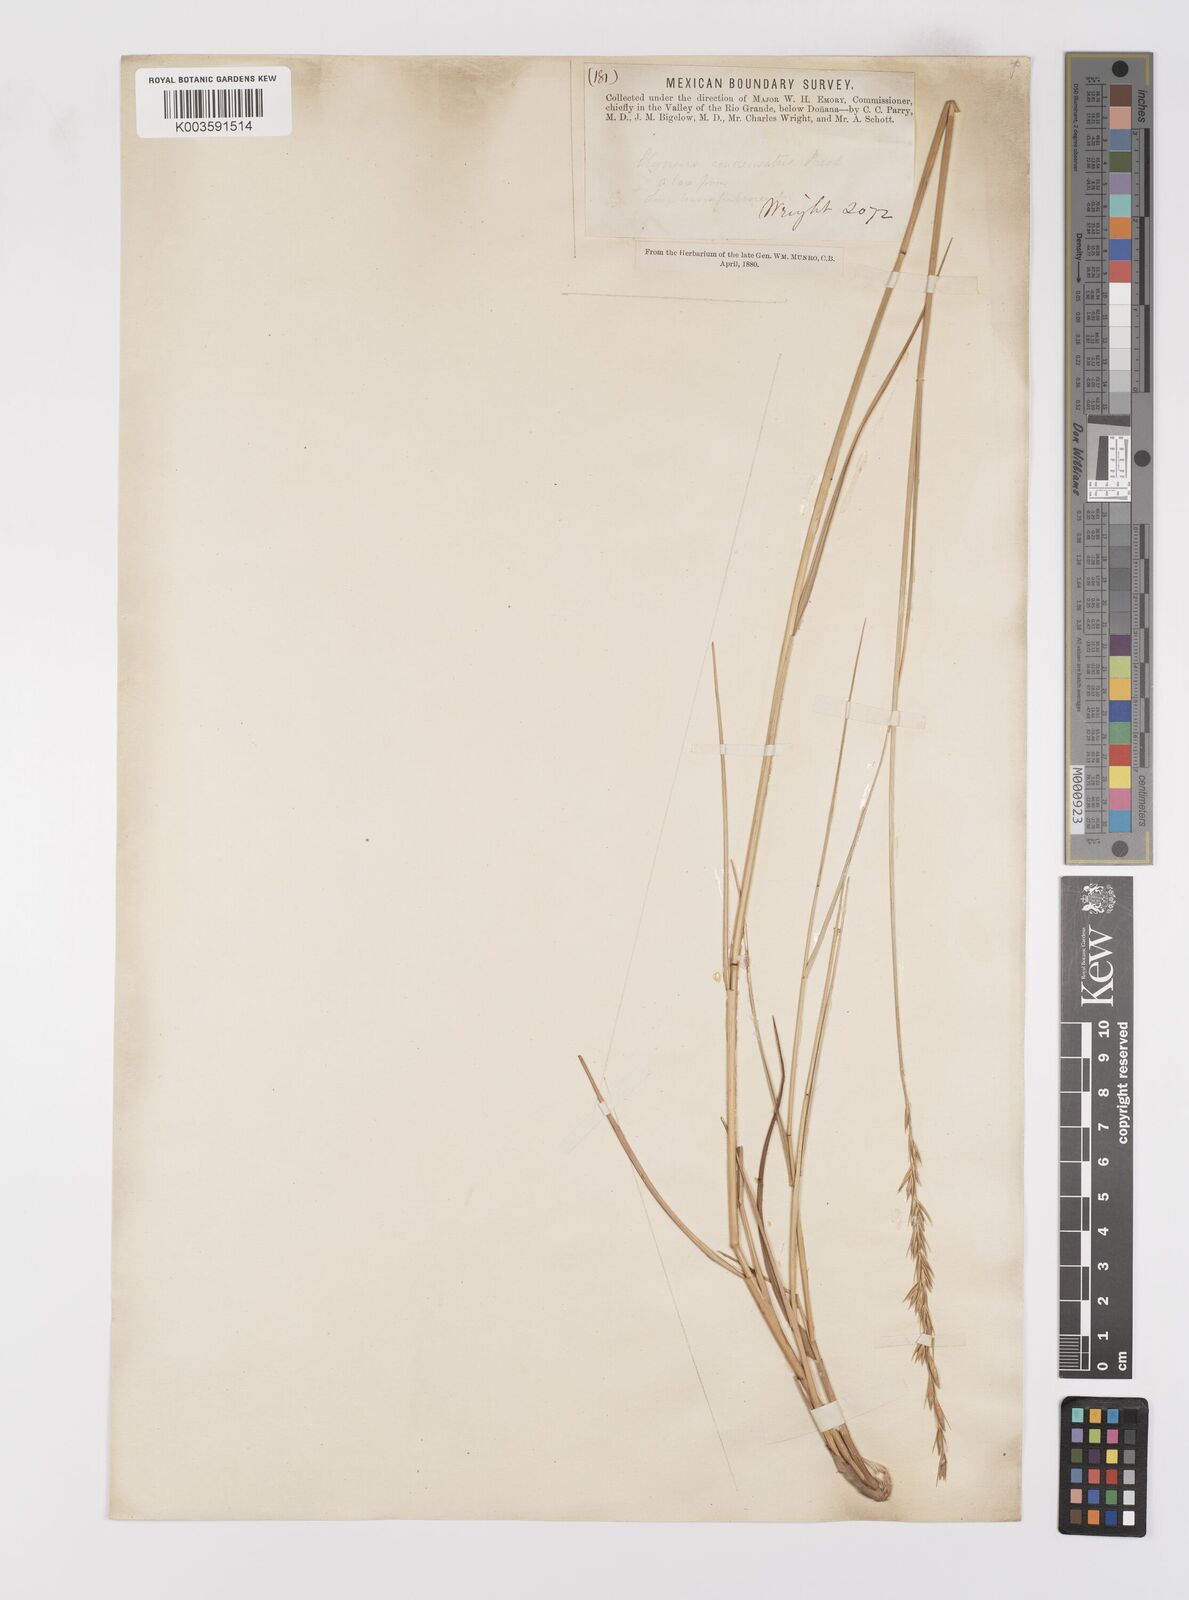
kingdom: Plantae
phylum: Tracheophyta
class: Liliopsida
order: Poales
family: Poaceae
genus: Leymus
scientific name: Leymus triticoides
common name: Beardless wild rye
